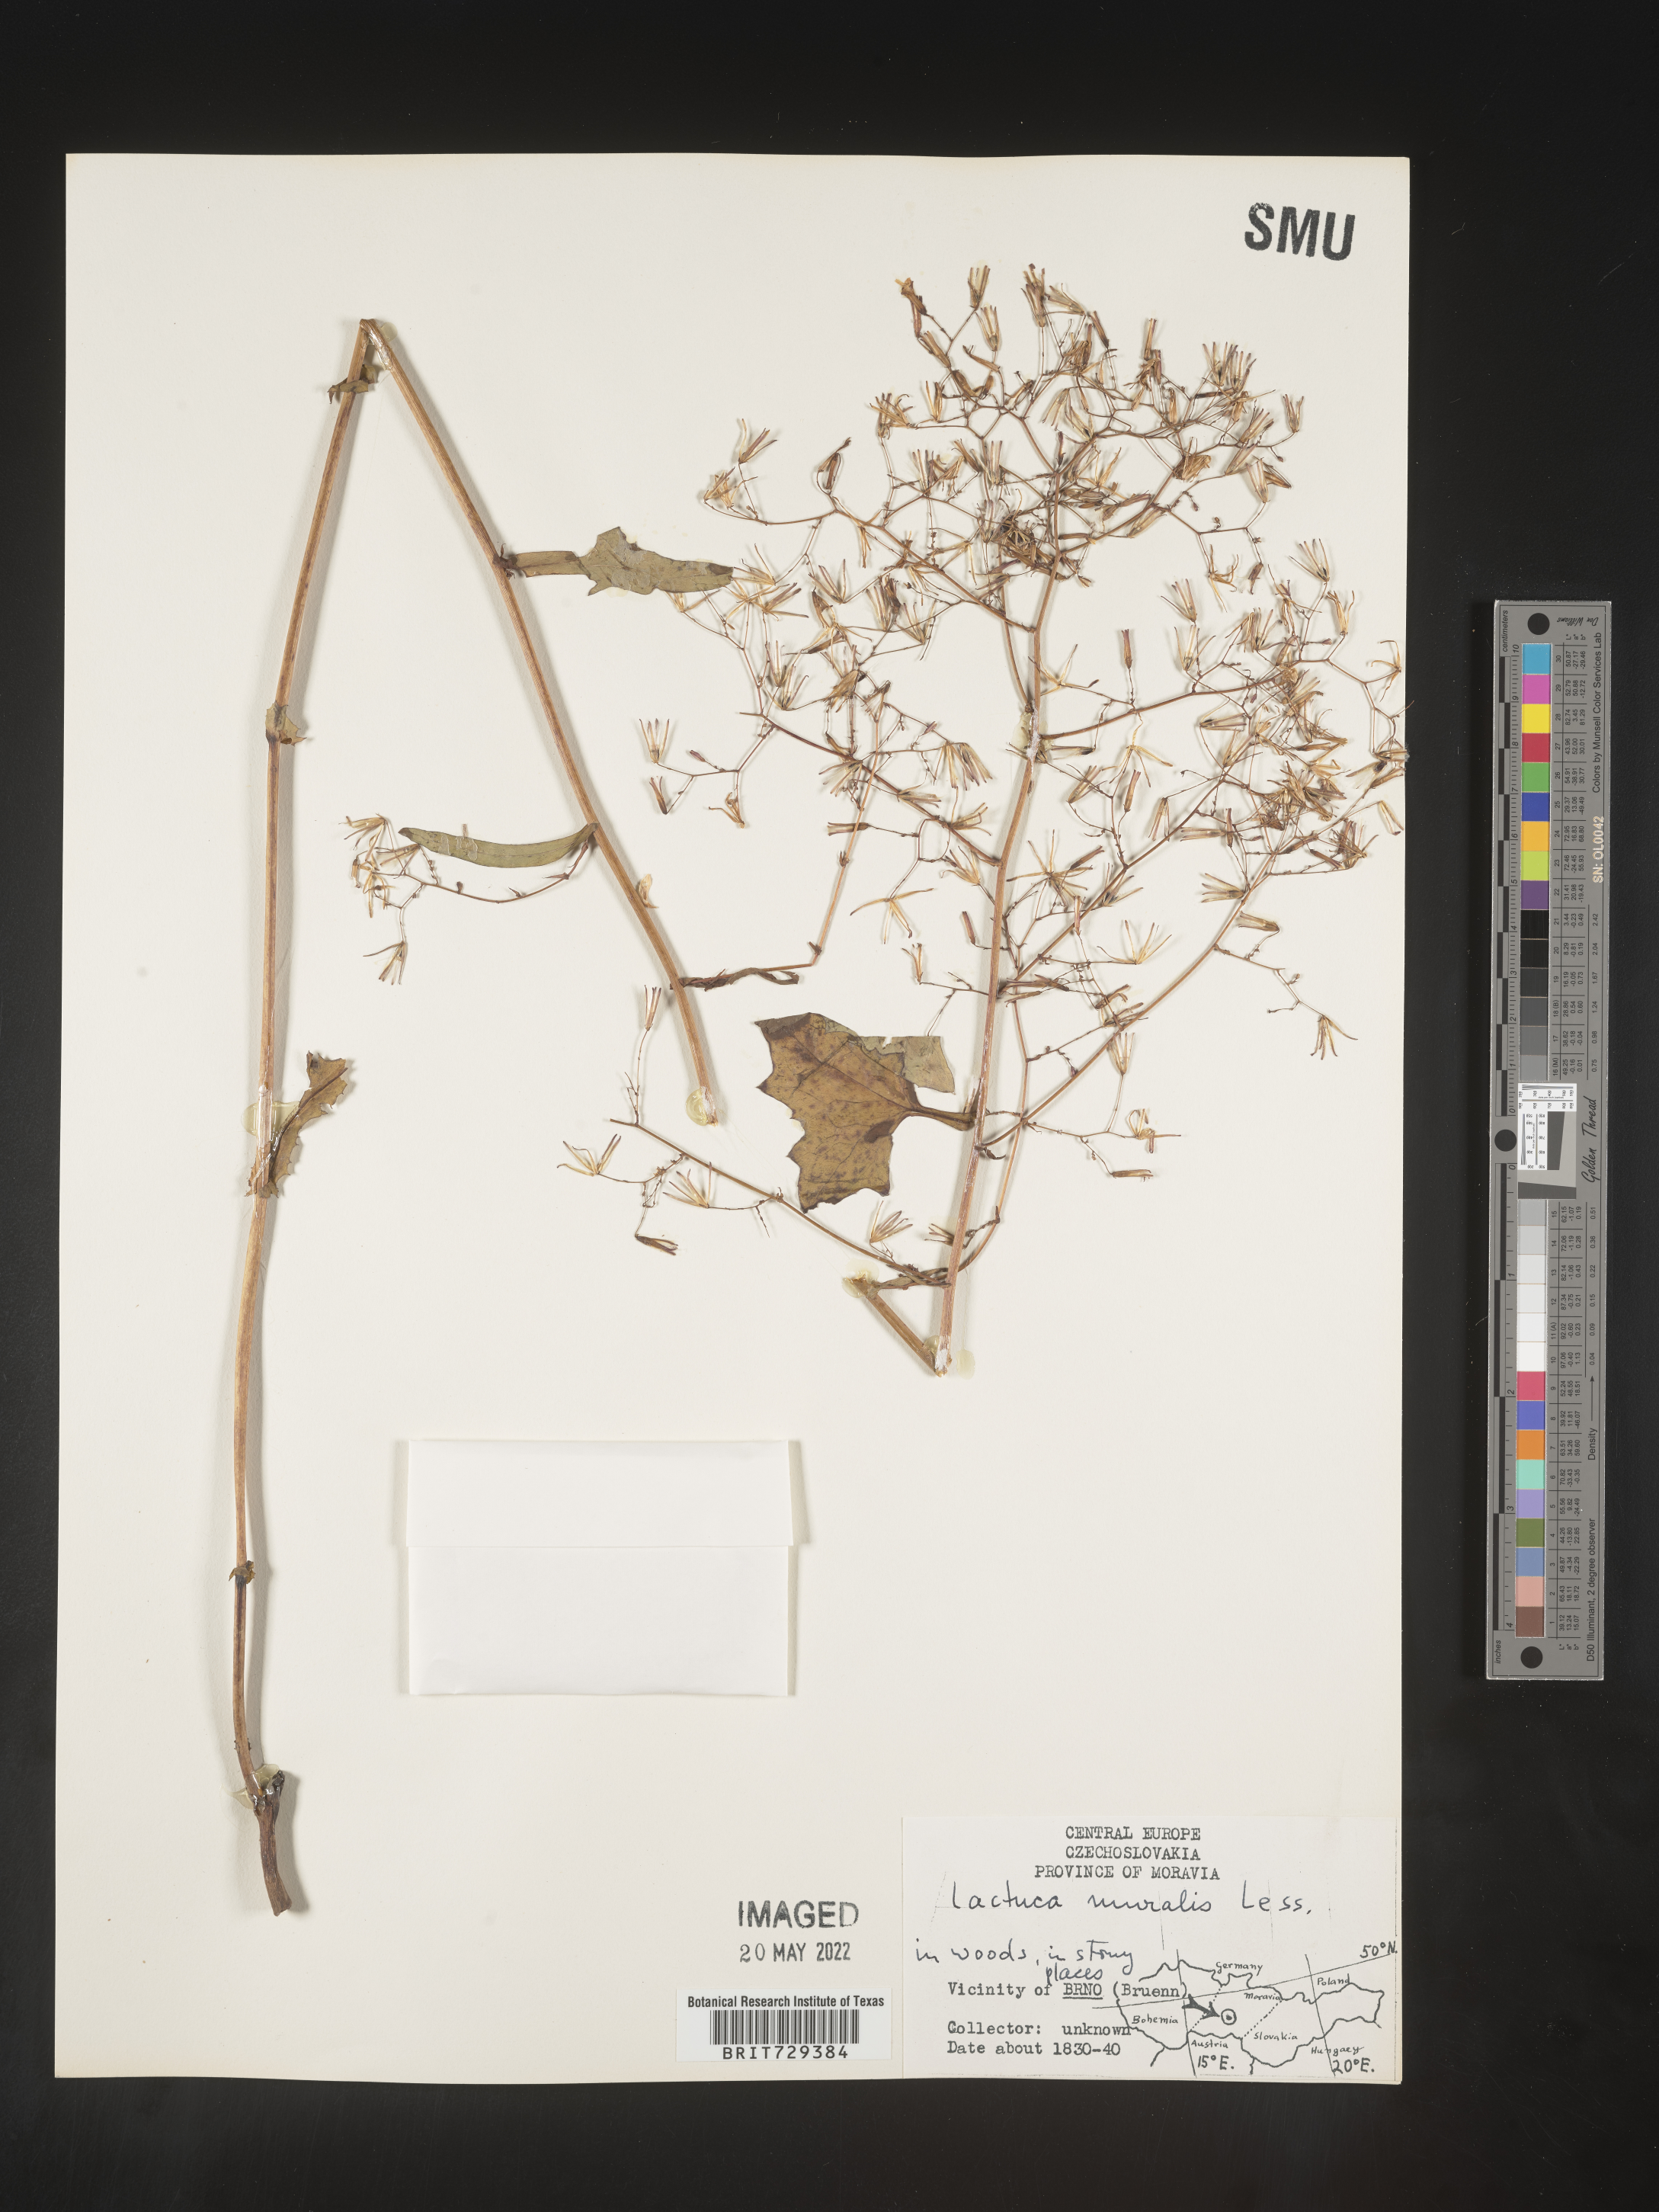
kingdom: Plantae
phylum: Tracheophyta
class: Magnoliopsida
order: Asterales
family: Asteraceae
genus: Lactuca
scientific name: Lactuca
